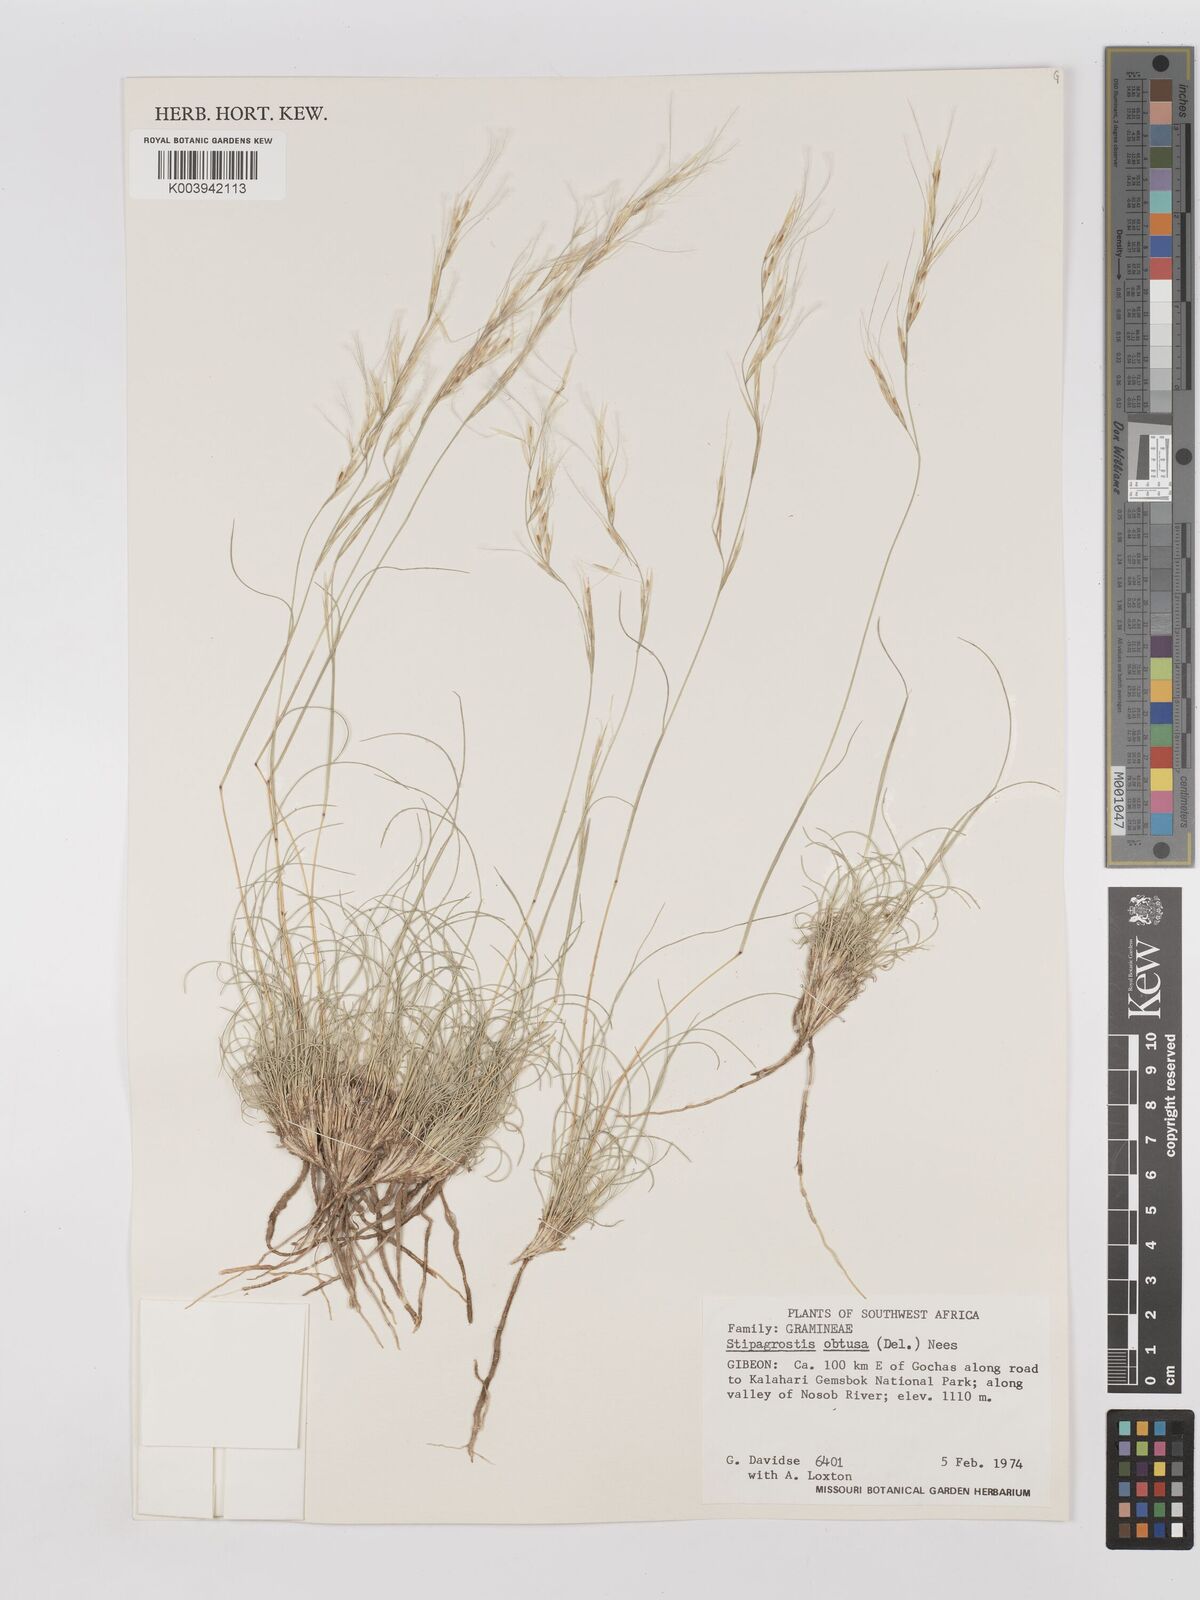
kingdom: Plantae
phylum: Tracheophyta
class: Liliopsida
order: Poales
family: Poaceae
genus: Stipagrostis
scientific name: Stipagrostis obtusa
